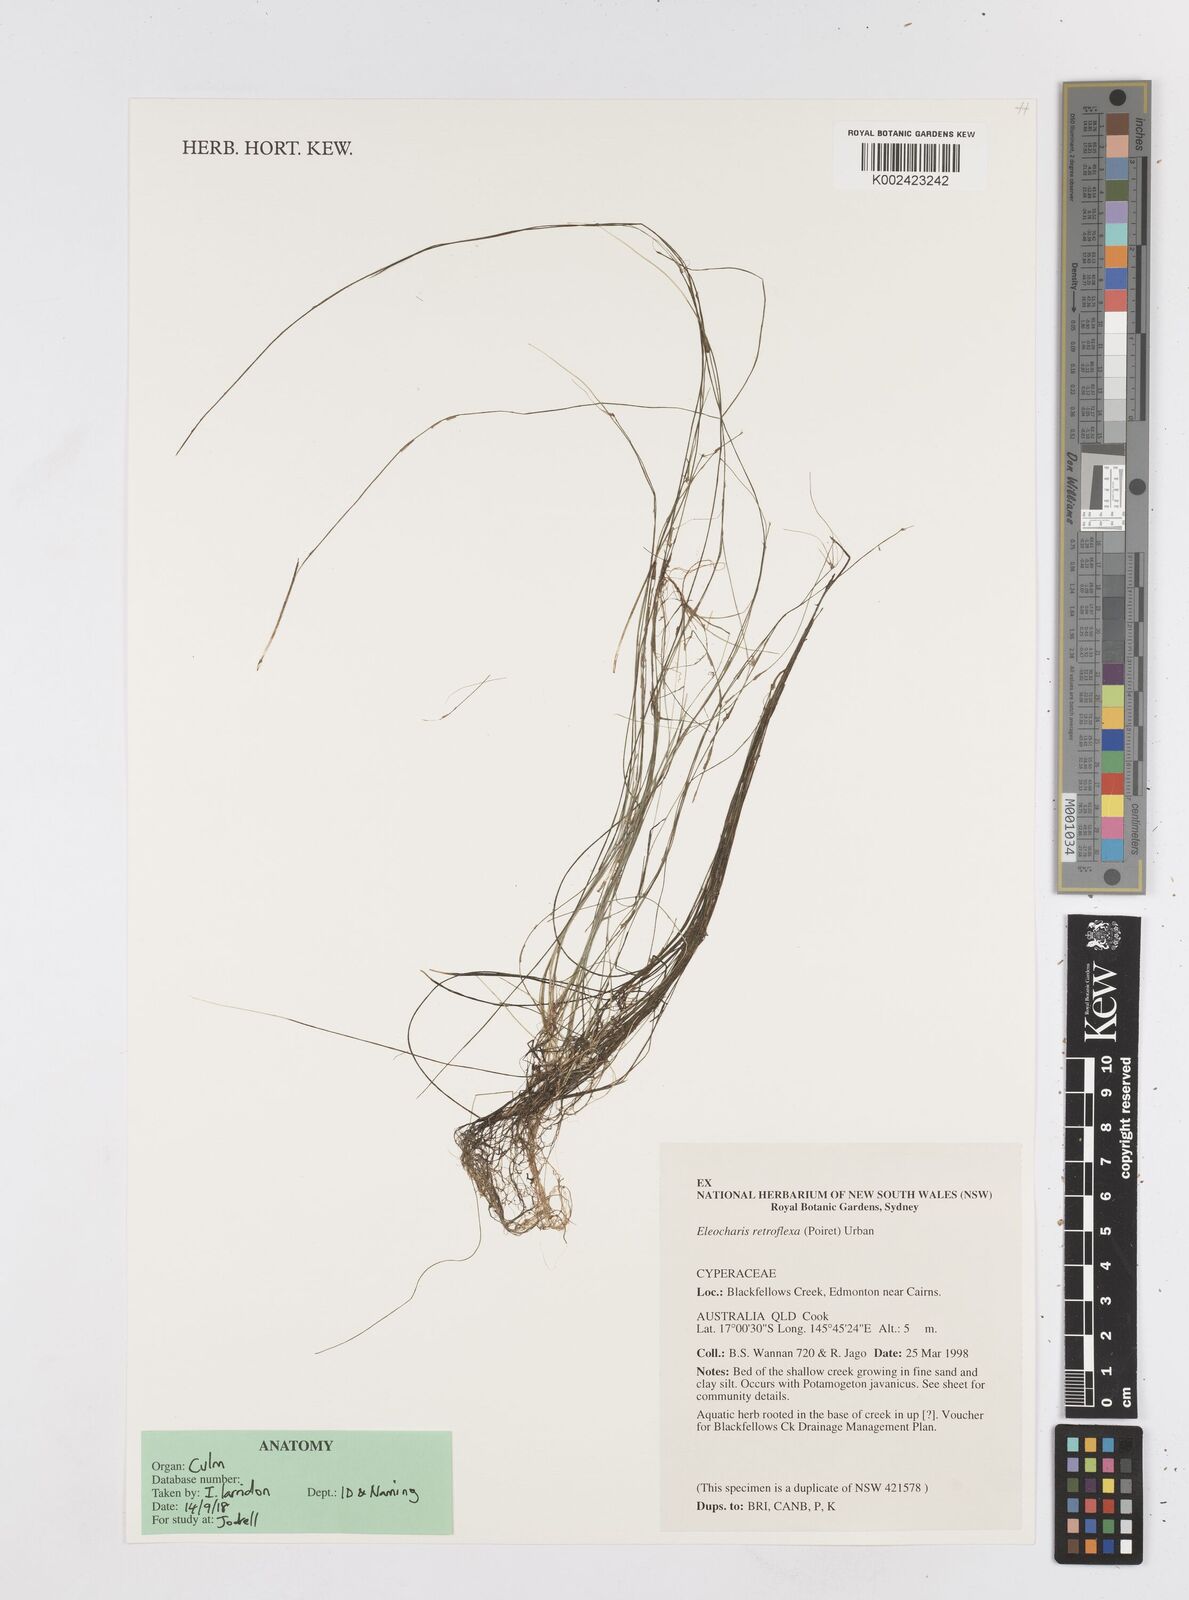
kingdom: Plantae
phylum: Tracheophyta
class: Liliopsida
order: Poales
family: Cyperaceae
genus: Eleocharis
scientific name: Eleocharis retroflexa
